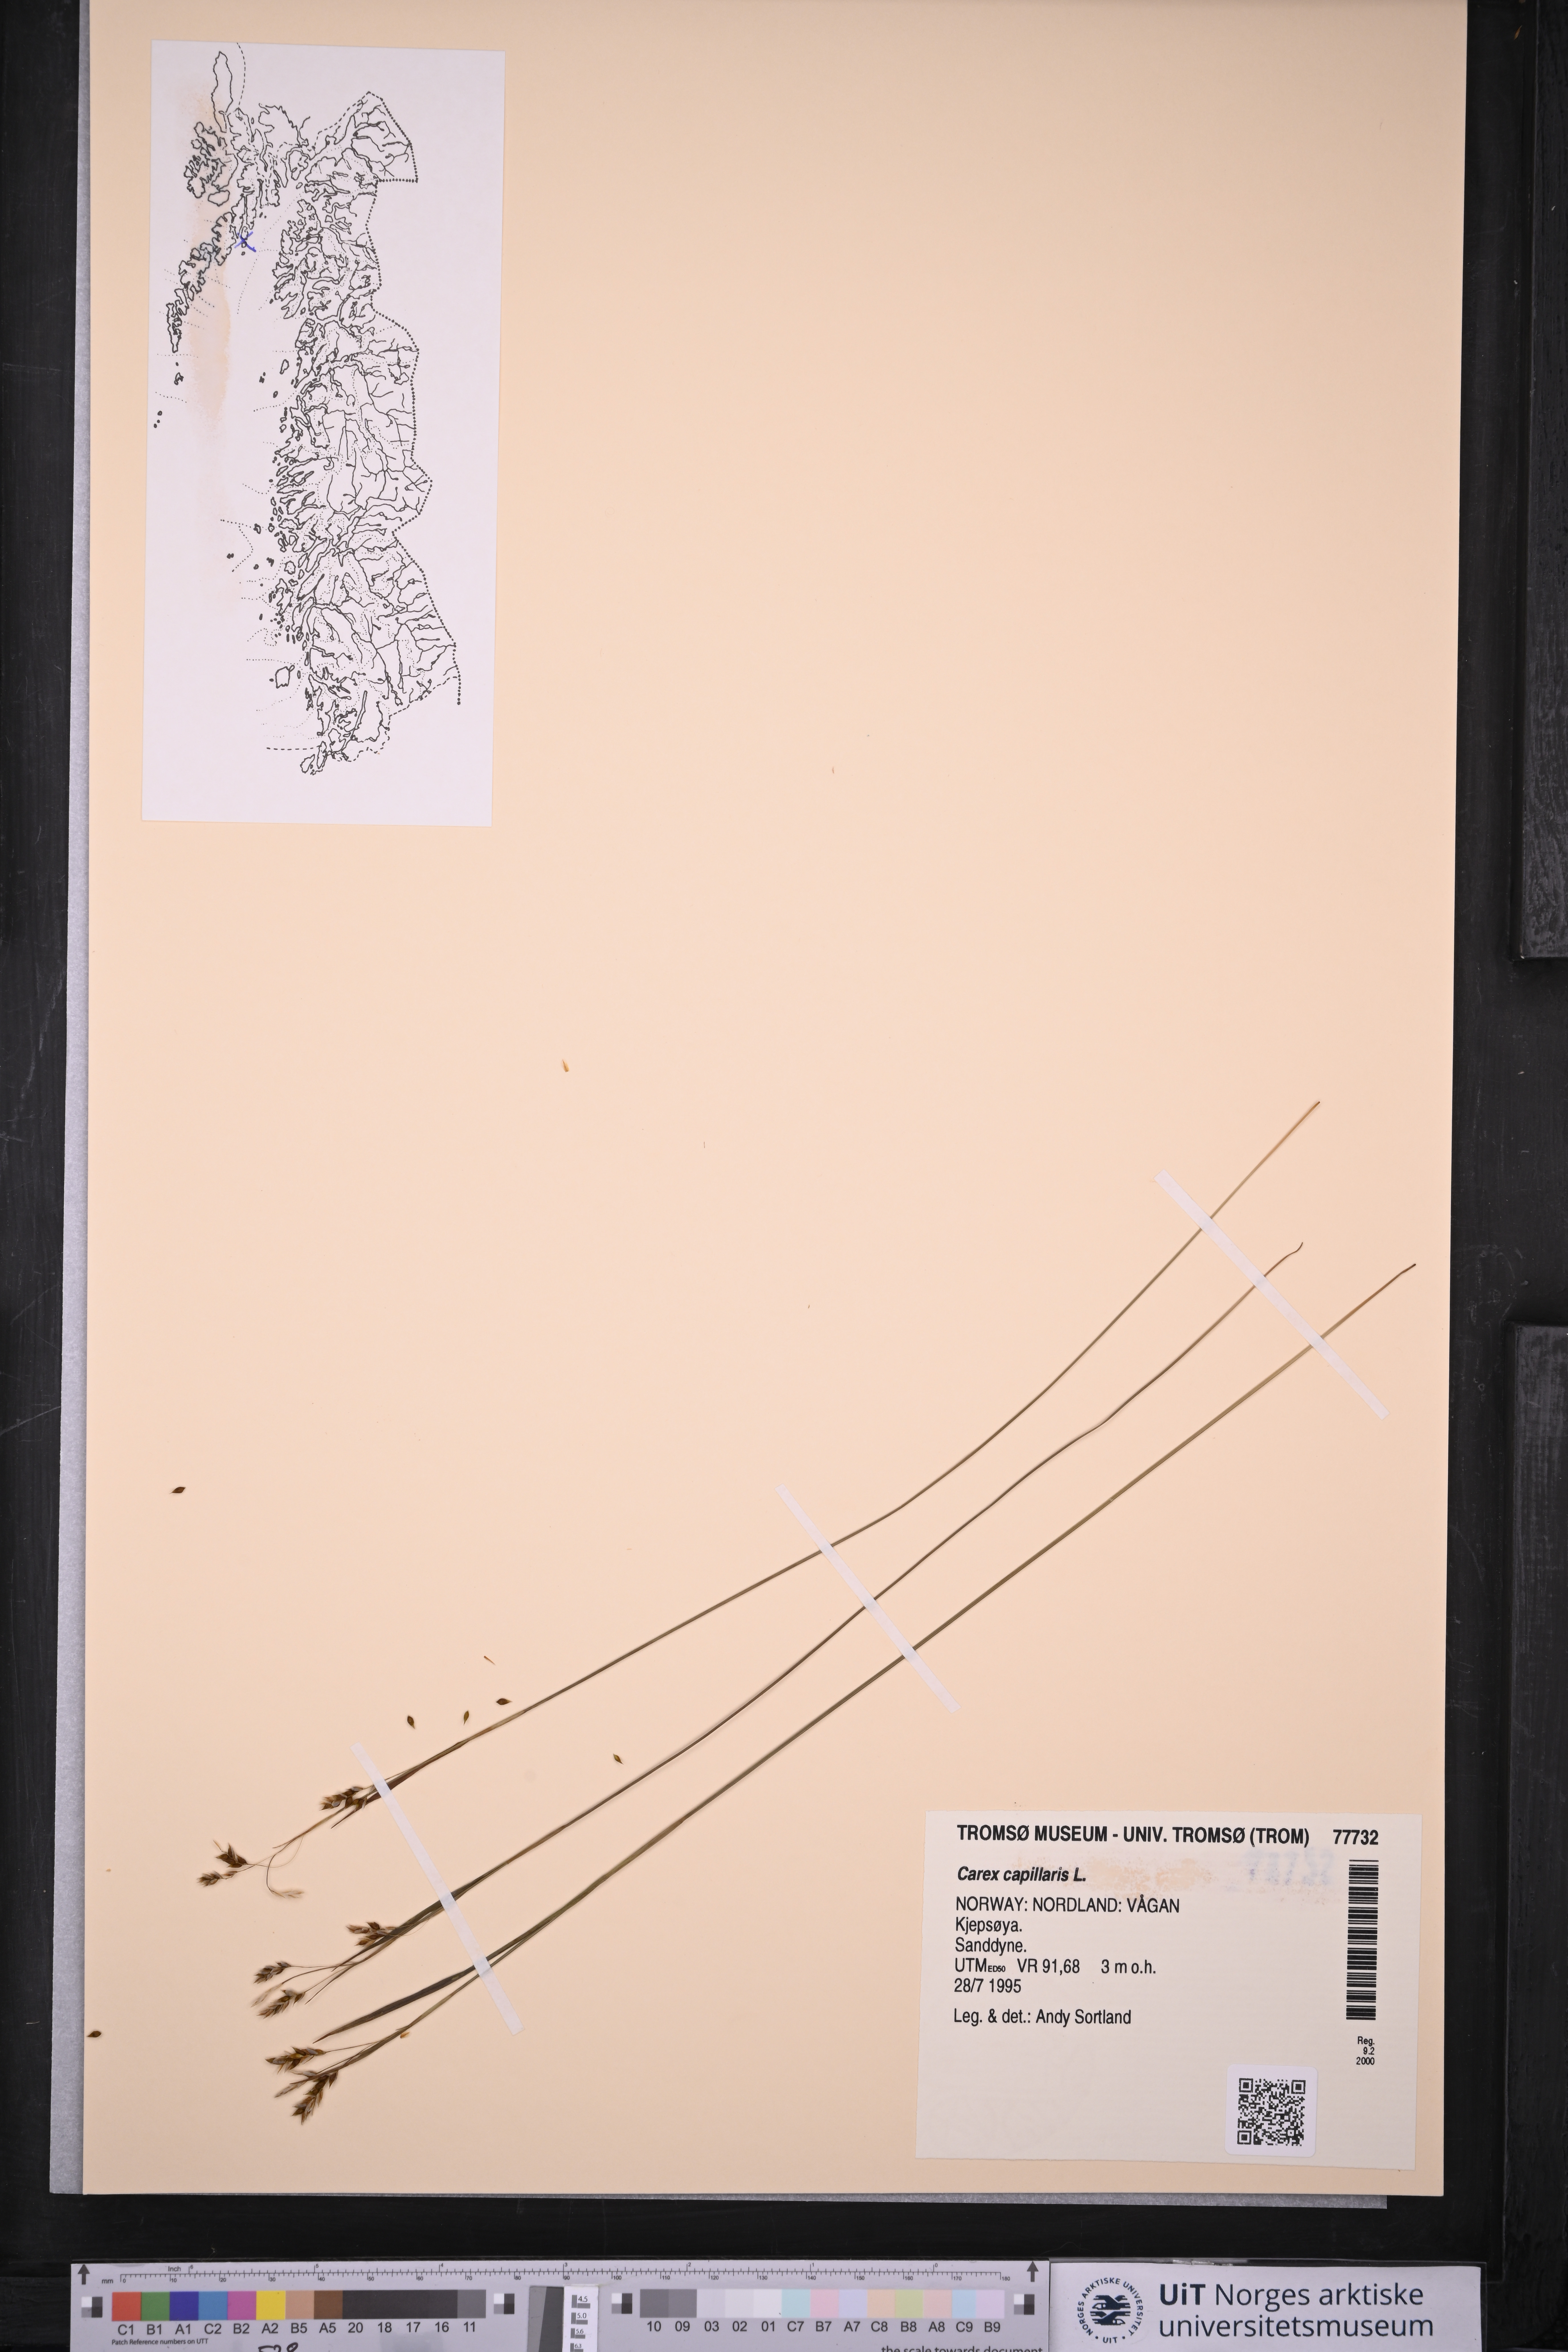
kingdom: Plantae
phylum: Tracheophyta
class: Liliopsida
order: Poales
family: Cyperaceae
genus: Carex
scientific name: Carex capillaris
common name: Hair sedge
